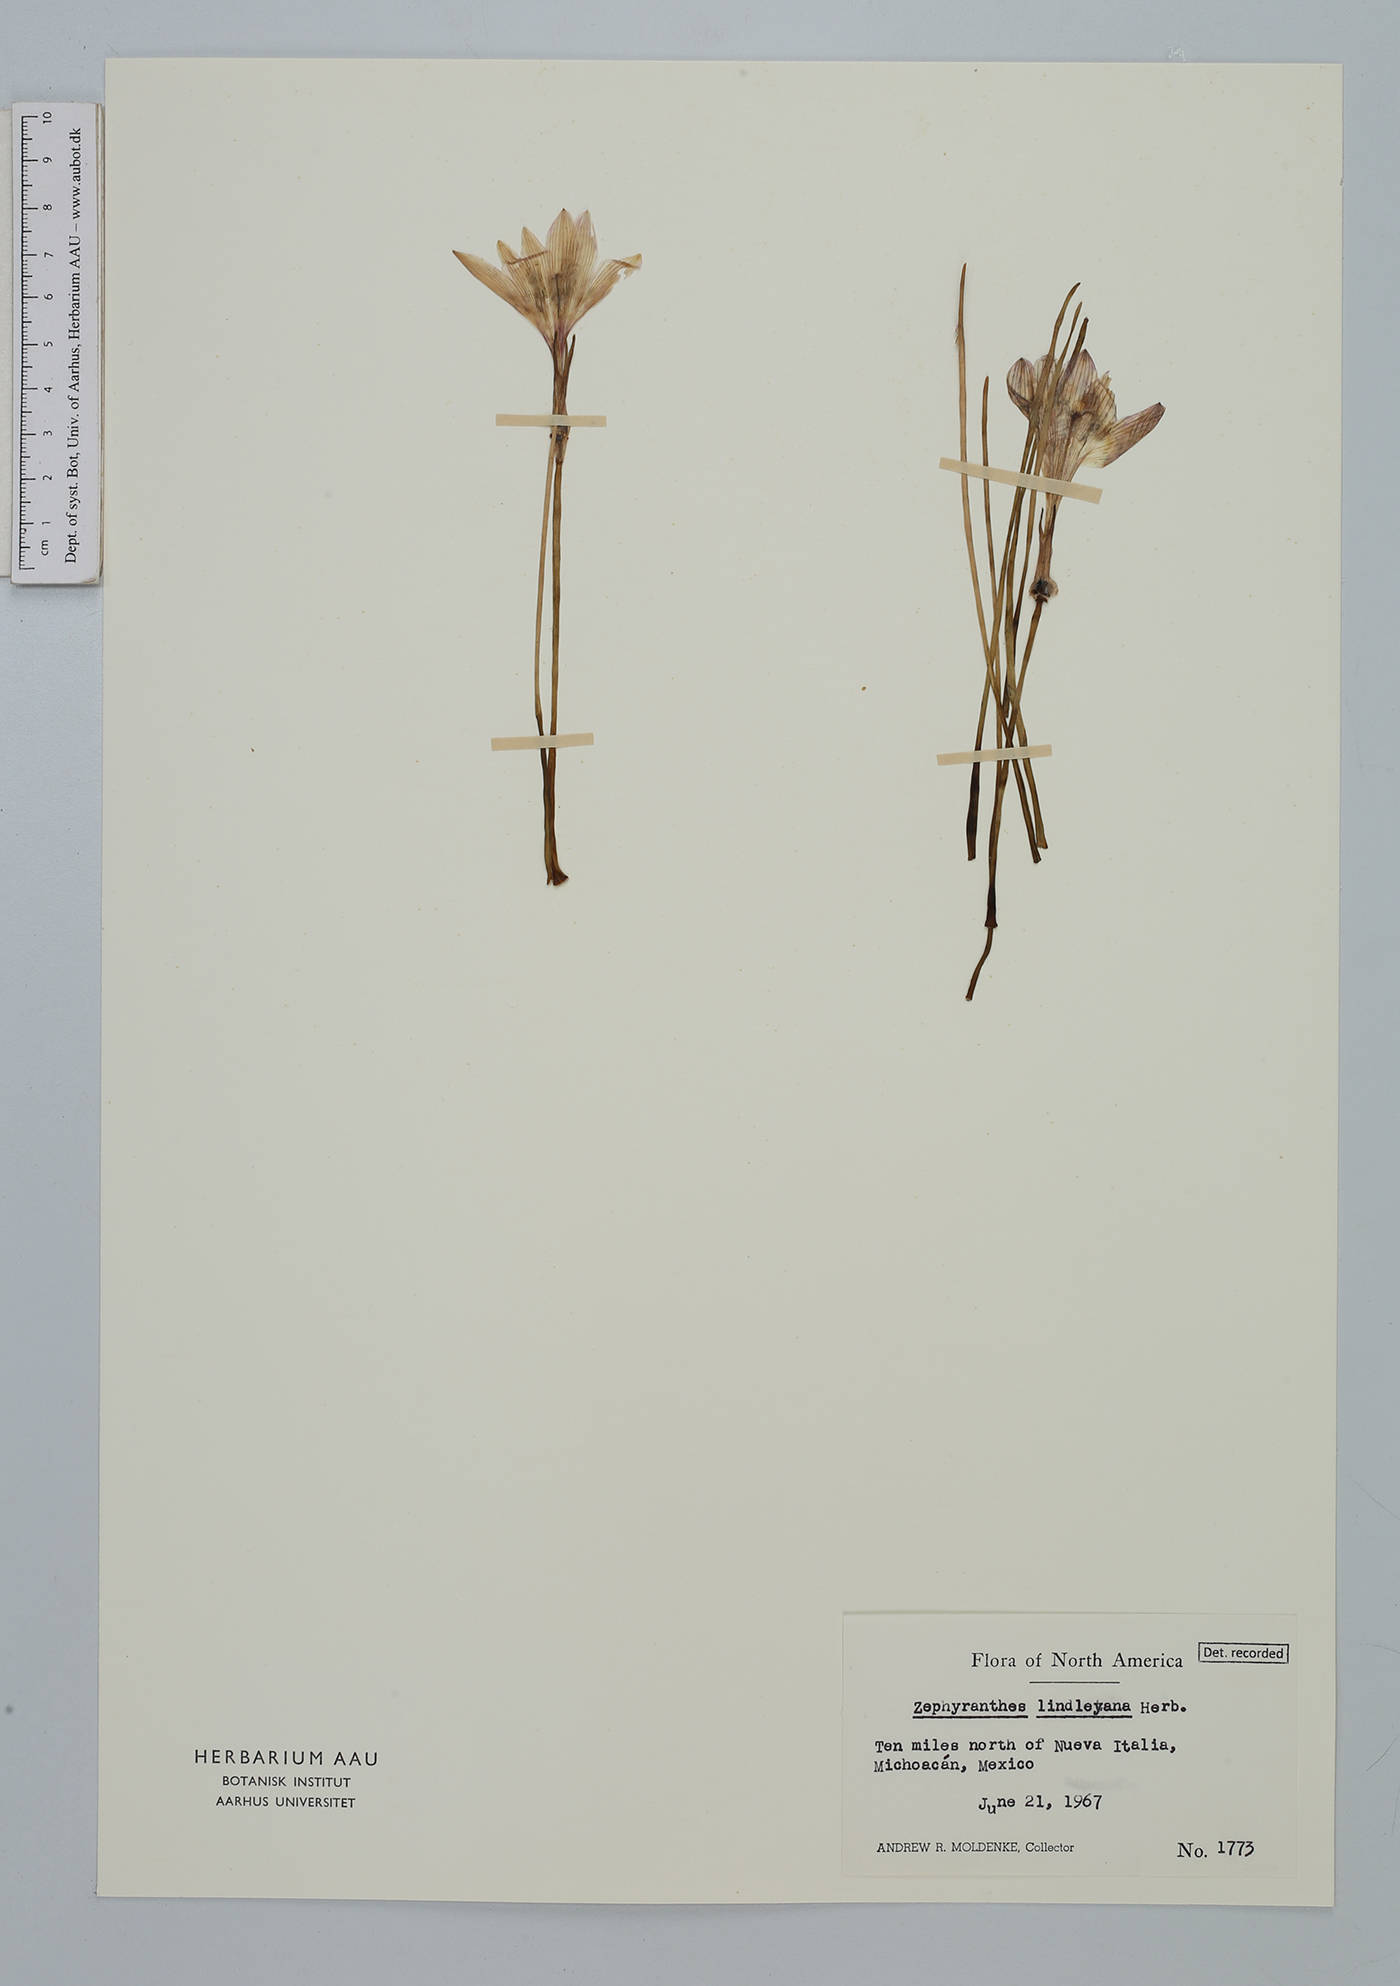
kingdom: Plantae
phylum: Tracheophyta
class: Liliopsida
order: Asparagales
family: Amaryllidaceae
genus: Zephyranthes
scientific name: Zephyranthes lindleyana
